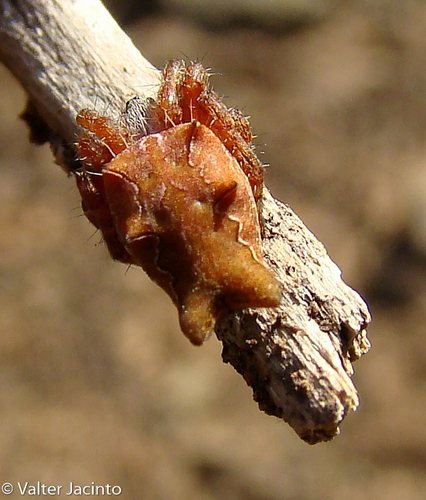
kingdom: Animalia
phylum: Arthropoda
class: Arachnida
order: Araneae
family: Araneidae
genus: Cyrtophora
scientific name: Cyrtophora citricola
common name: Orb weavers
